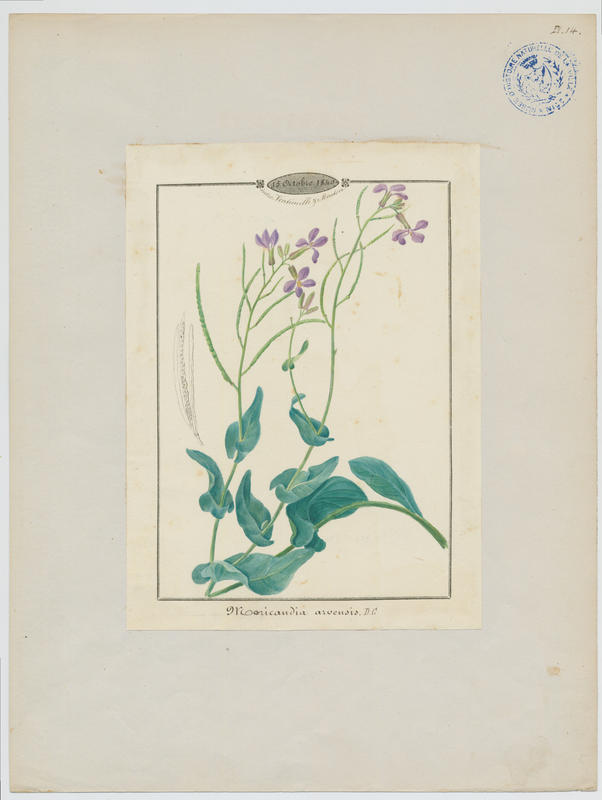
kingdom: Plantae
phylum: Tracheophyta
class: Magnoliopsida
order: Brassicales
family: Brassicaceae
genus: Moricandia
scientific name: Moricandia arvensis
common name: Purple mistress
